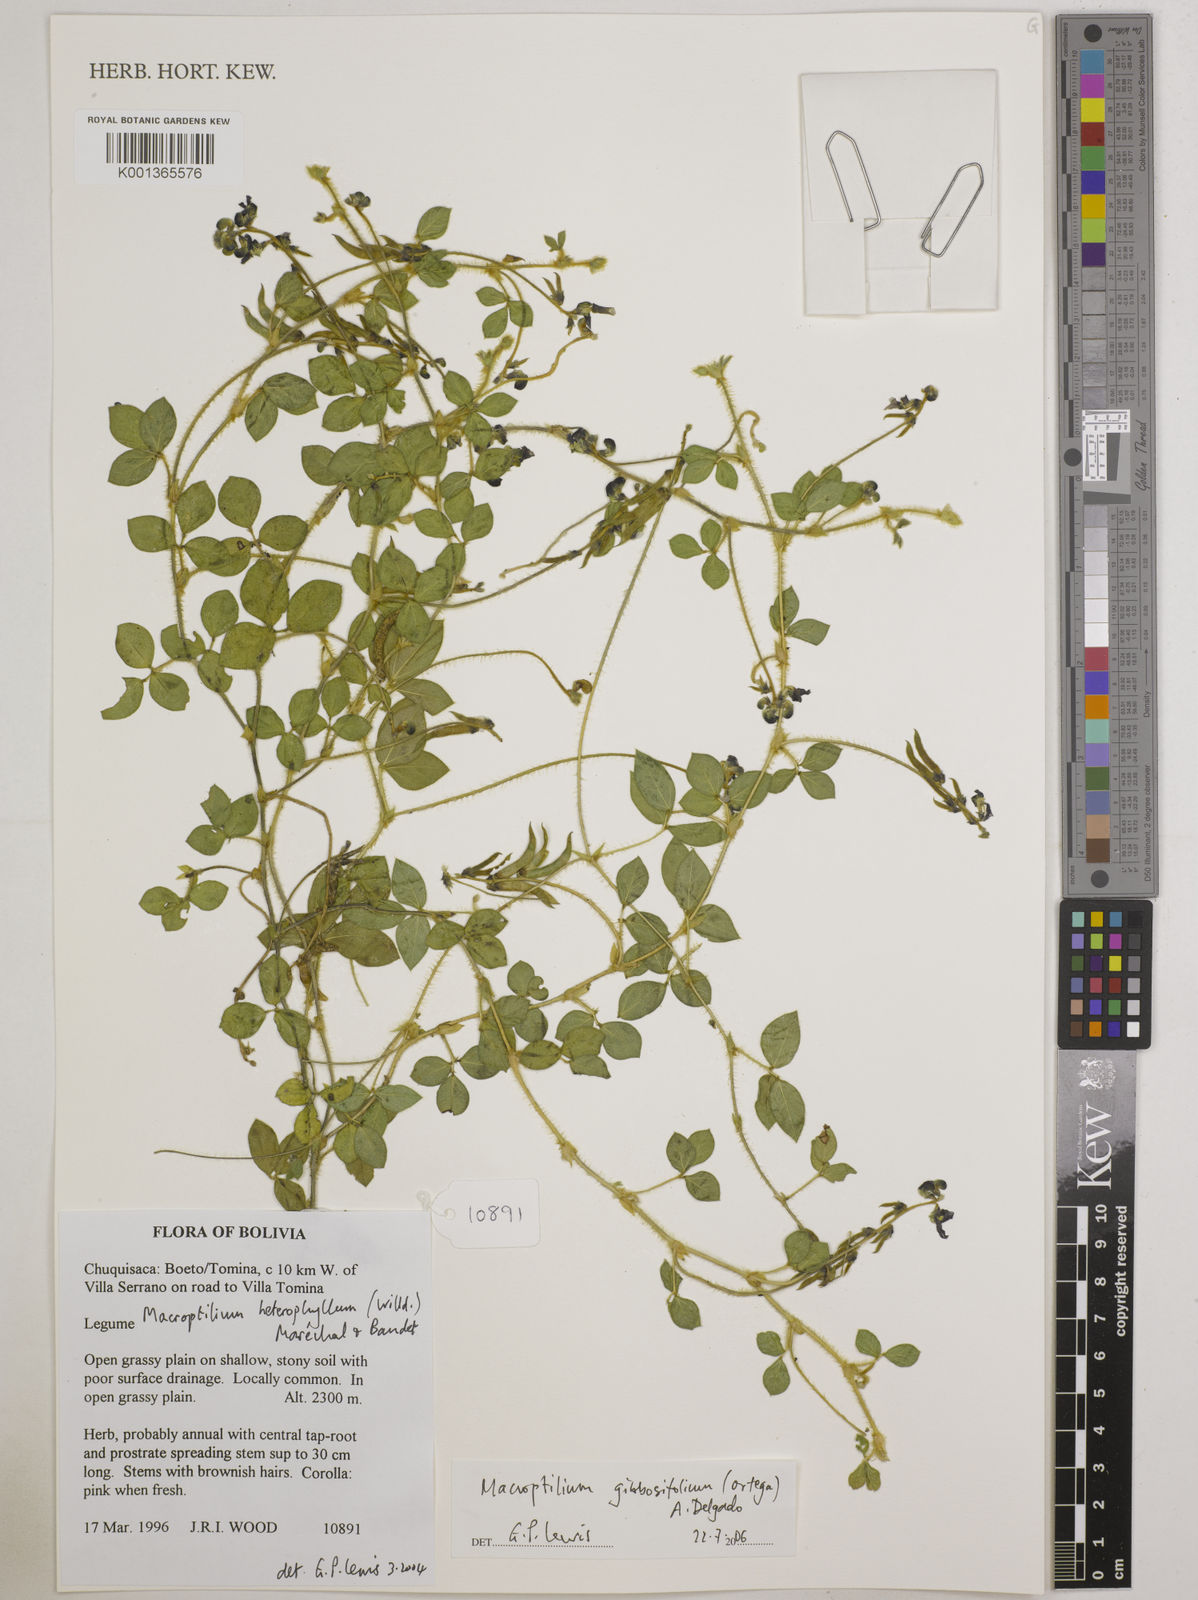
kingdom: Plantae
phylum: Tracheophyta
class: Magnoliopsida
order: Fabales
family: Fabaceae
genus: Macroptilium
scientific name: Macroptilium gibbosifolium
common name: Variableleaf bushbean
